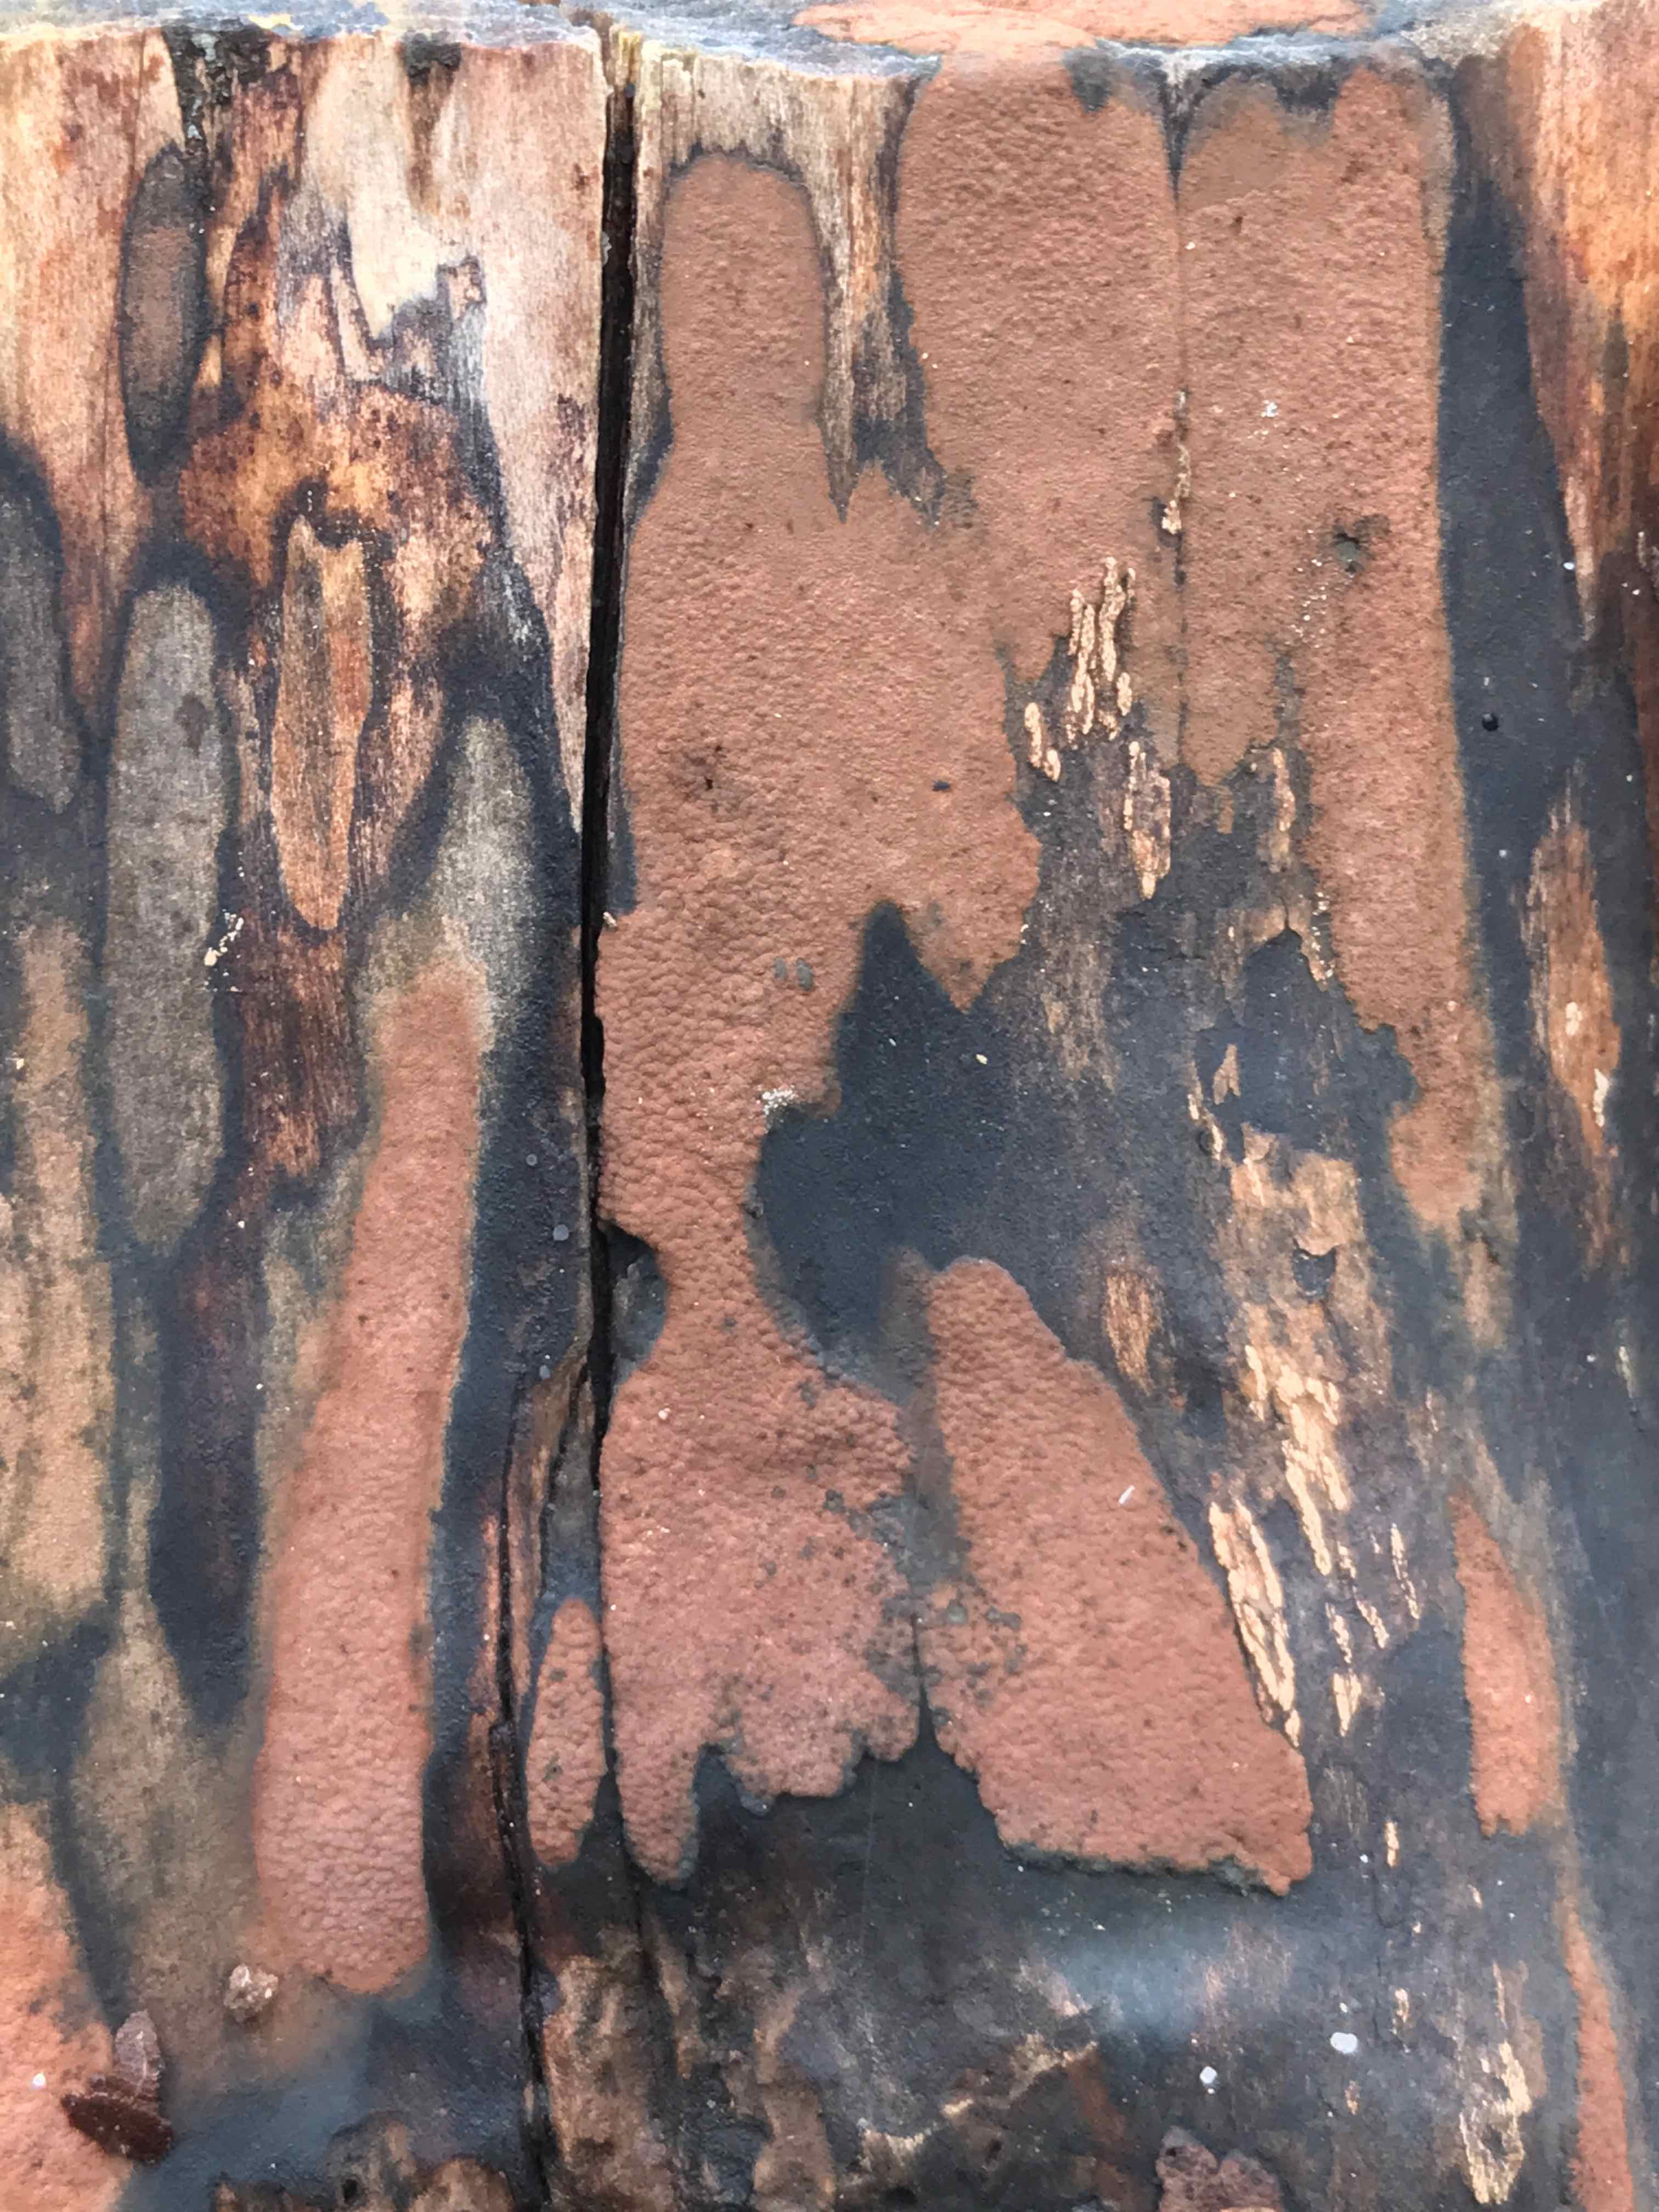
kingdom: Fungi
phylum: Ascomycota
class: Sordariomycetes
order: Xylariales
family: Hypoxylaceae
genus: Hypoxylon
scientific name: Hypoxylon petriniae
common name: nedsænket kulbær
